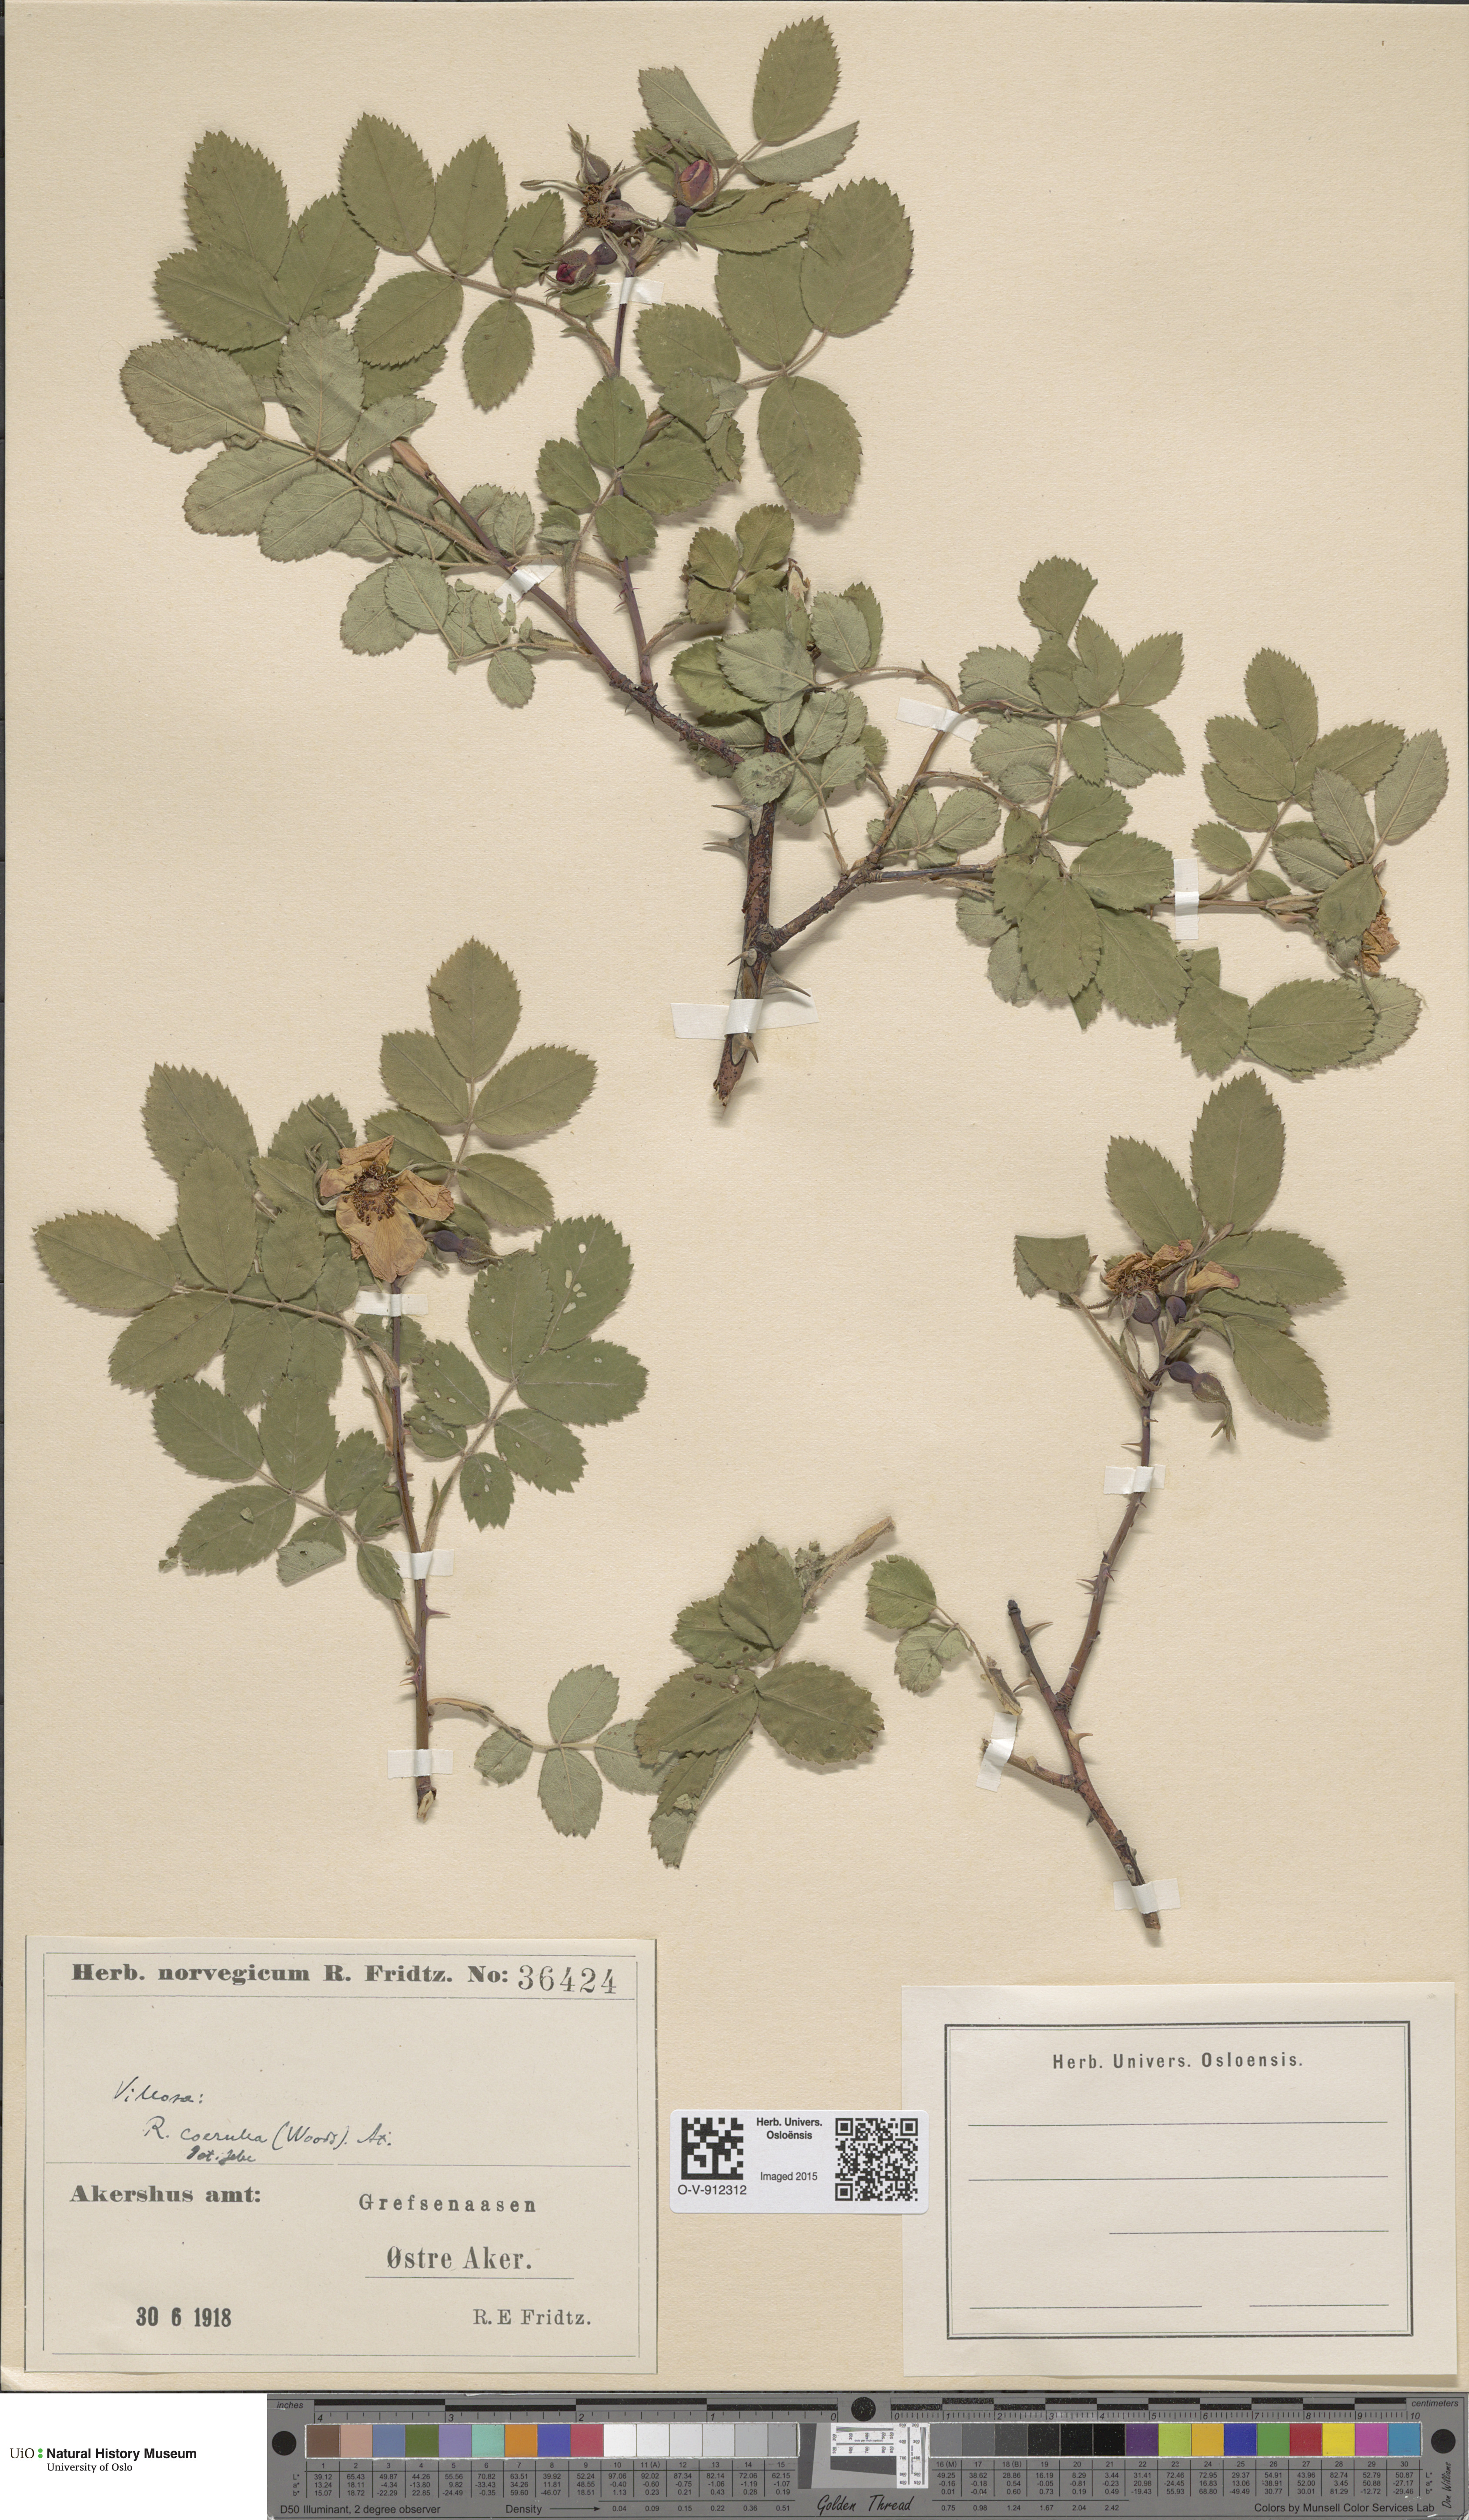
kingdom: Plantae
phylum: Tracheophyta
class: Magnoliopsida
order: Rosales
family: Rosaceae
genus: Rosa
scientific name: Rosa mollis
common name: Rose
